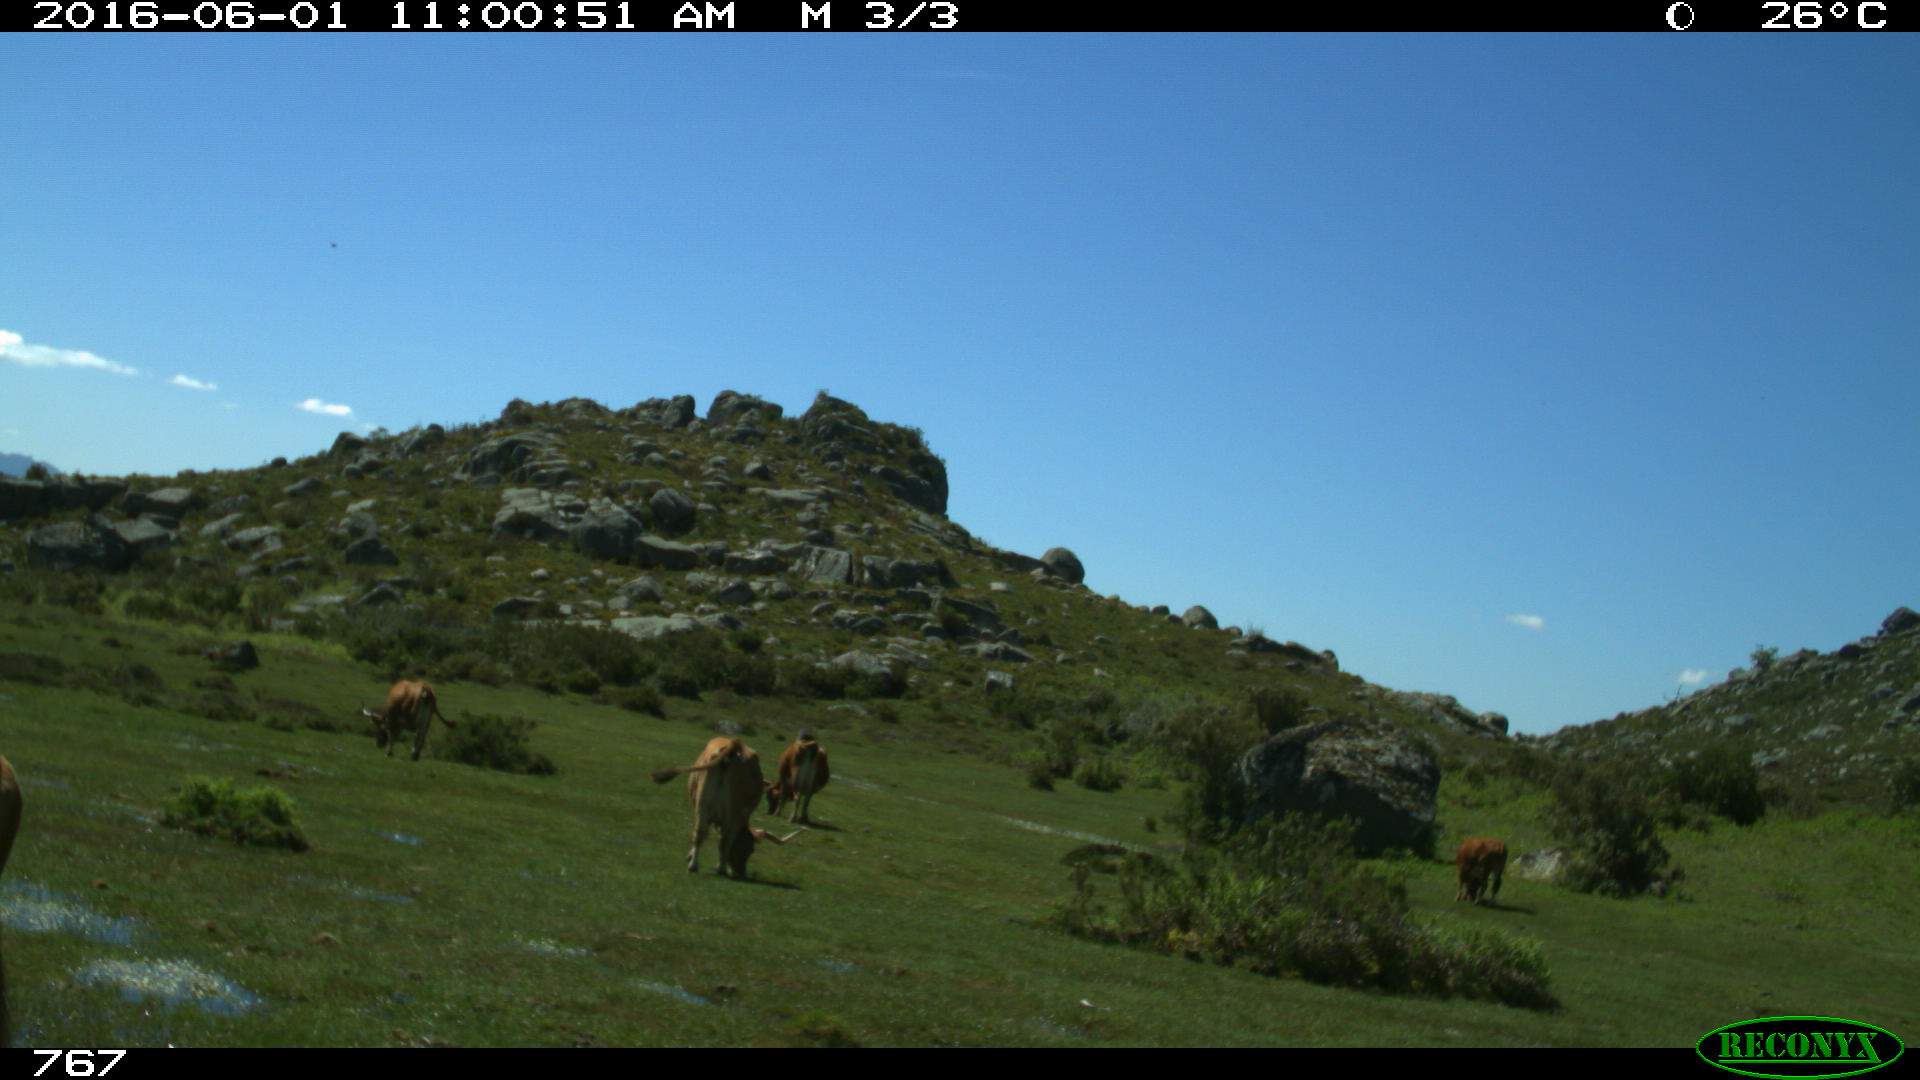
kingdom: Animalia
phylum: Chordata
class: Mammalia
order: Artiodactyla
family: Bovidae
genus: Bos
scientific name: Bos taurus
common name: Domesticated cattle
